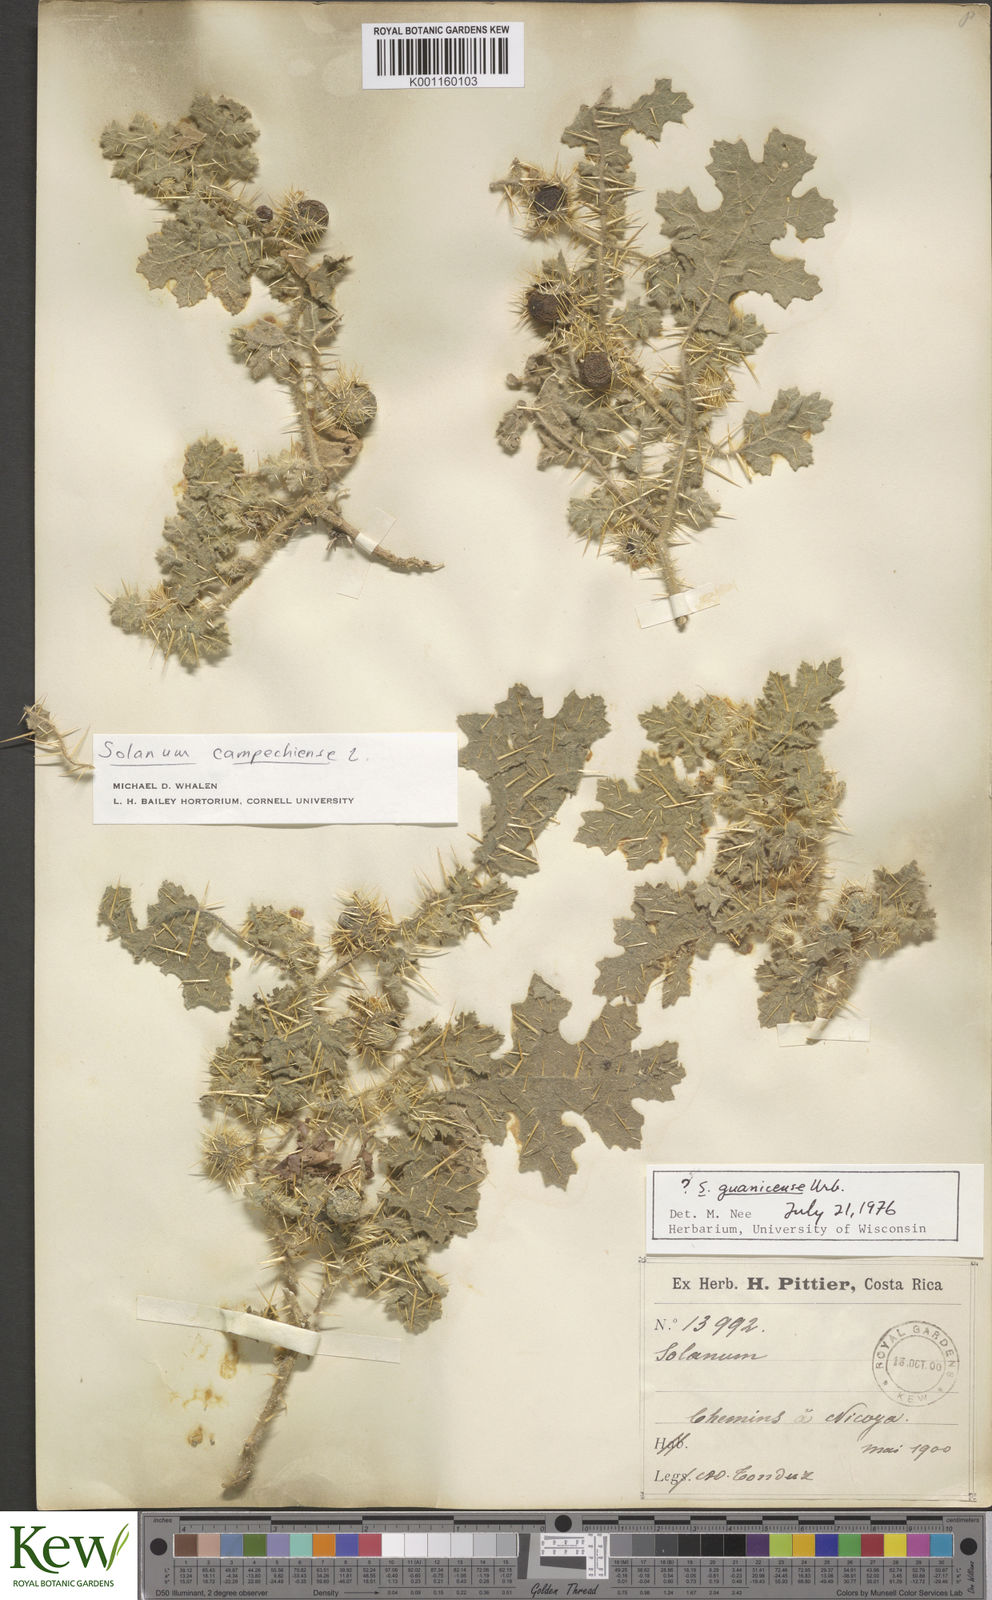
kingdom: Plantae
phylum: Tracheophyta
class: Magnoliopsida
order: Solanales
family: Solanaceae
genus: Solanum
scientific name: Solanum campechiense
